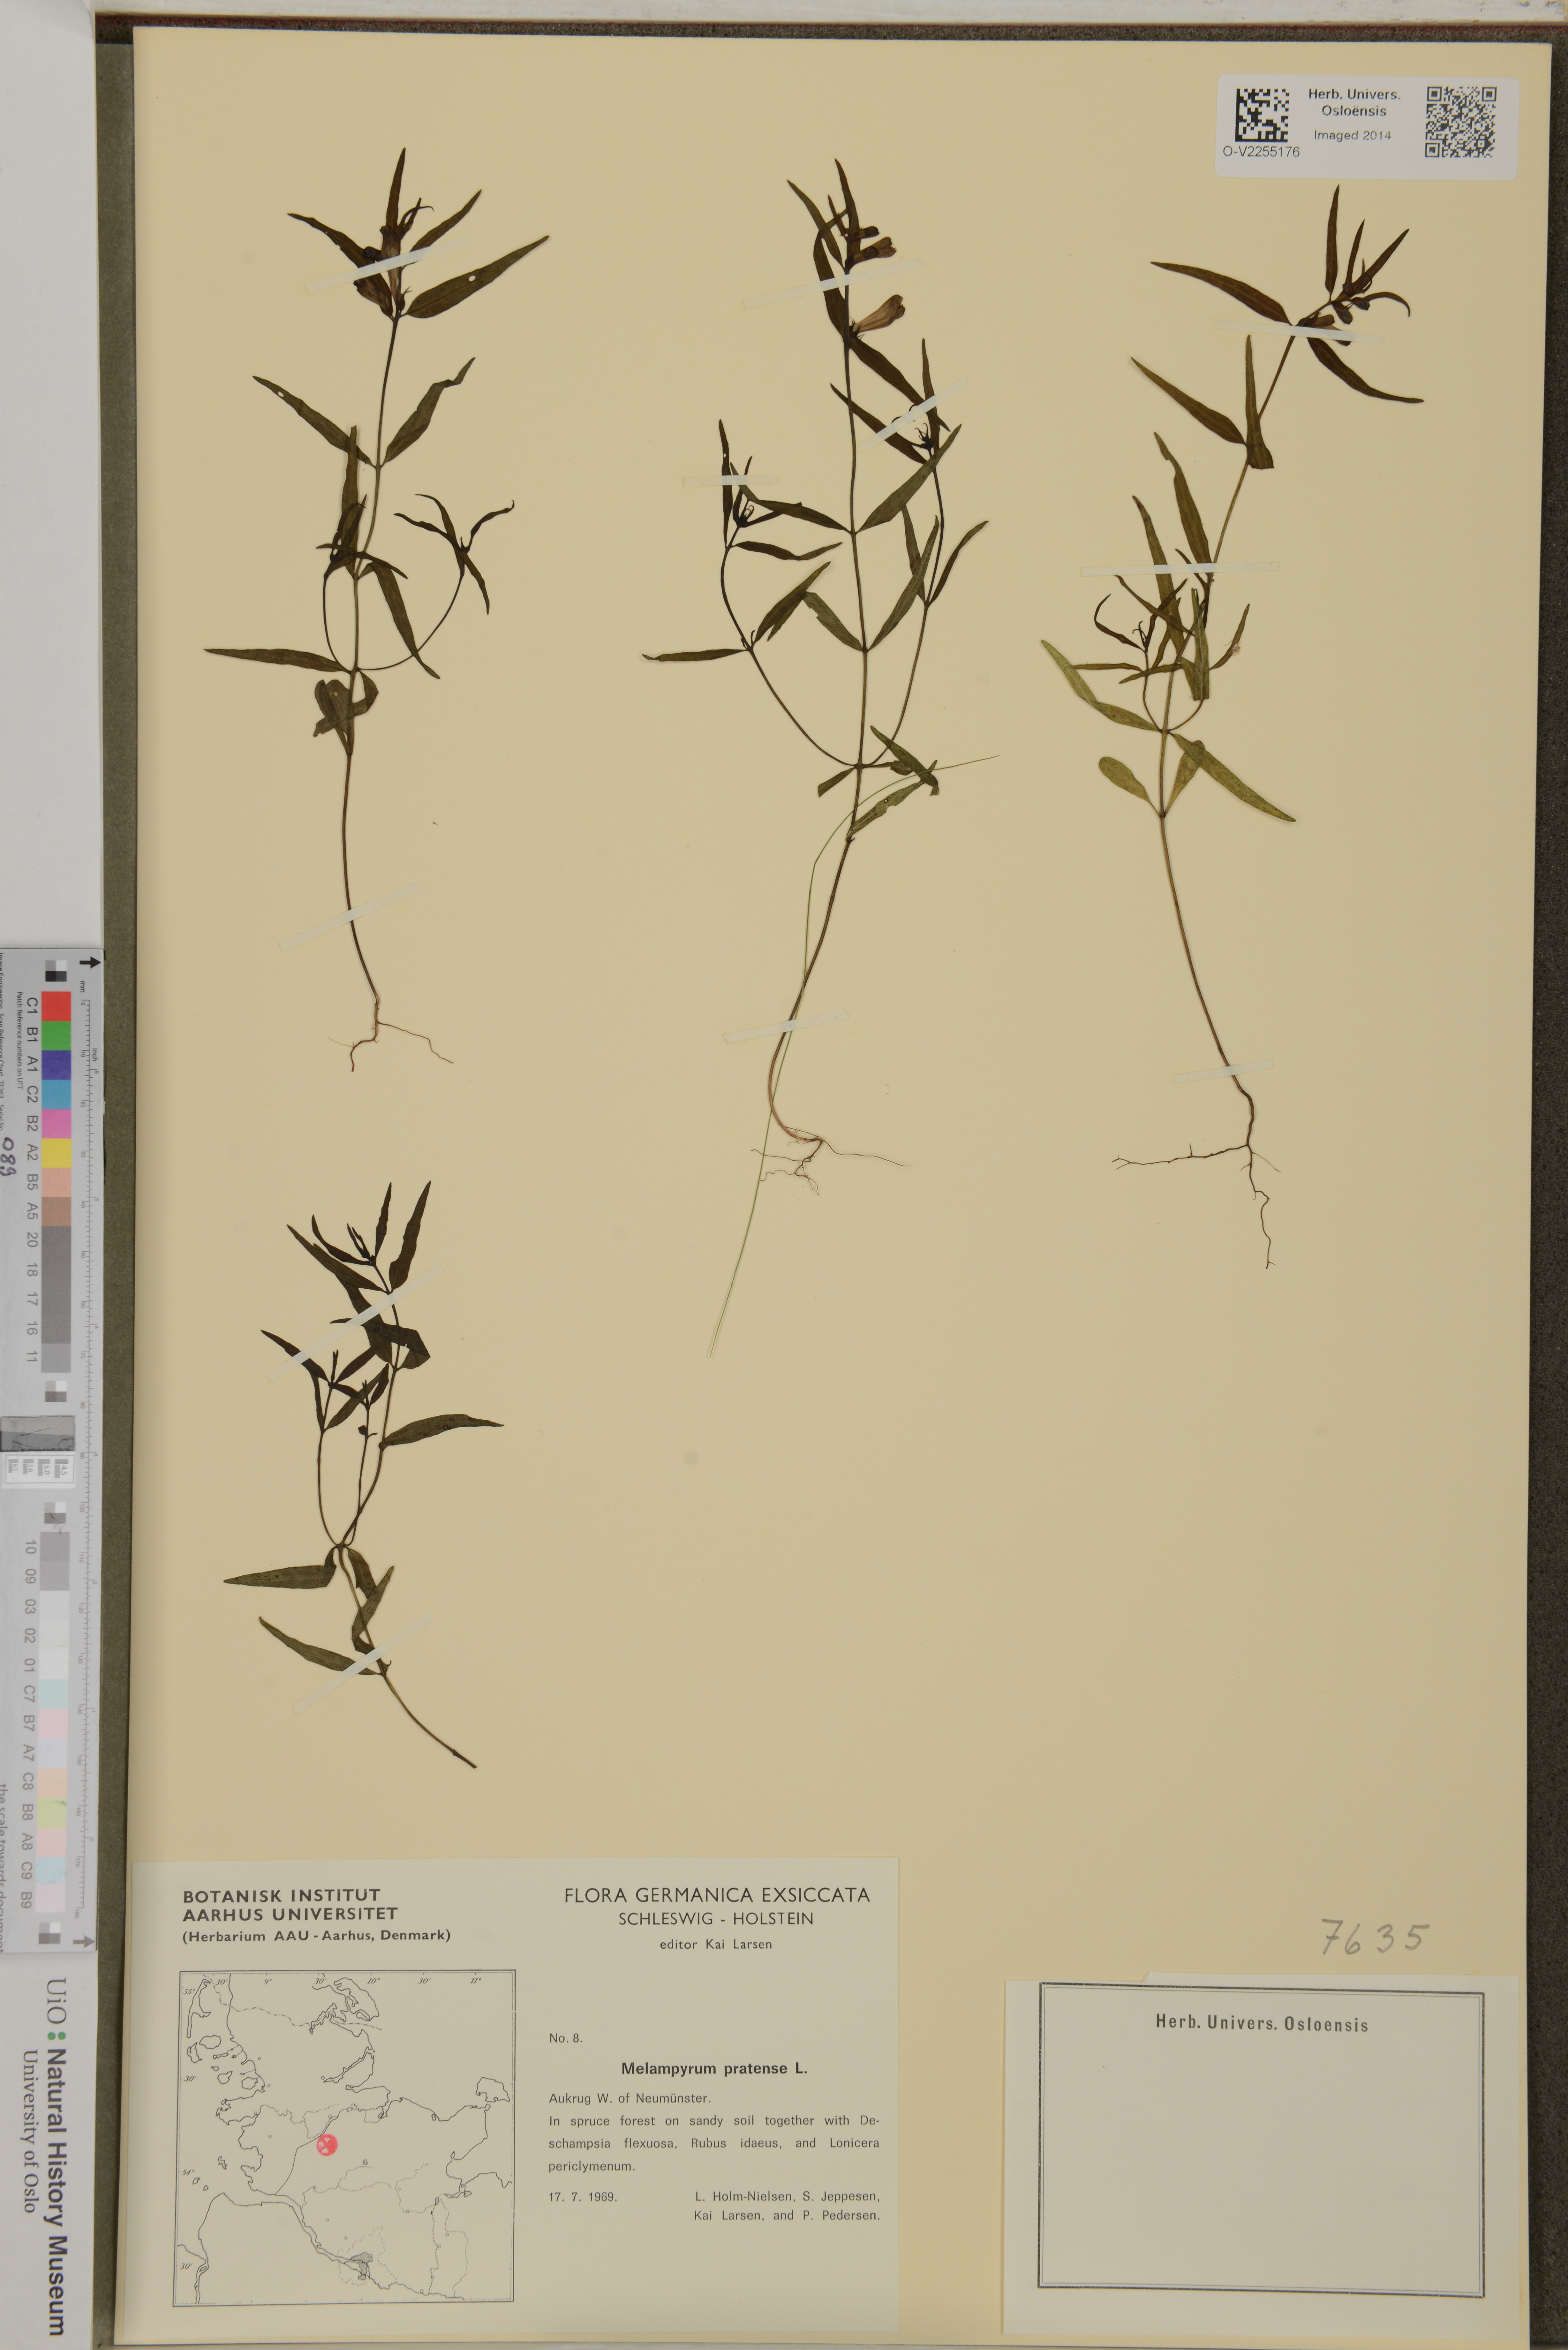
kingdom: Plantae
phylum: Tracheophyta
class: Magnoliopsida
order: Lamiales
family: Orobanchaceae
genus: Melampyrum
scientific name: Melampyrum pratense
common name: Common cow-wheat
